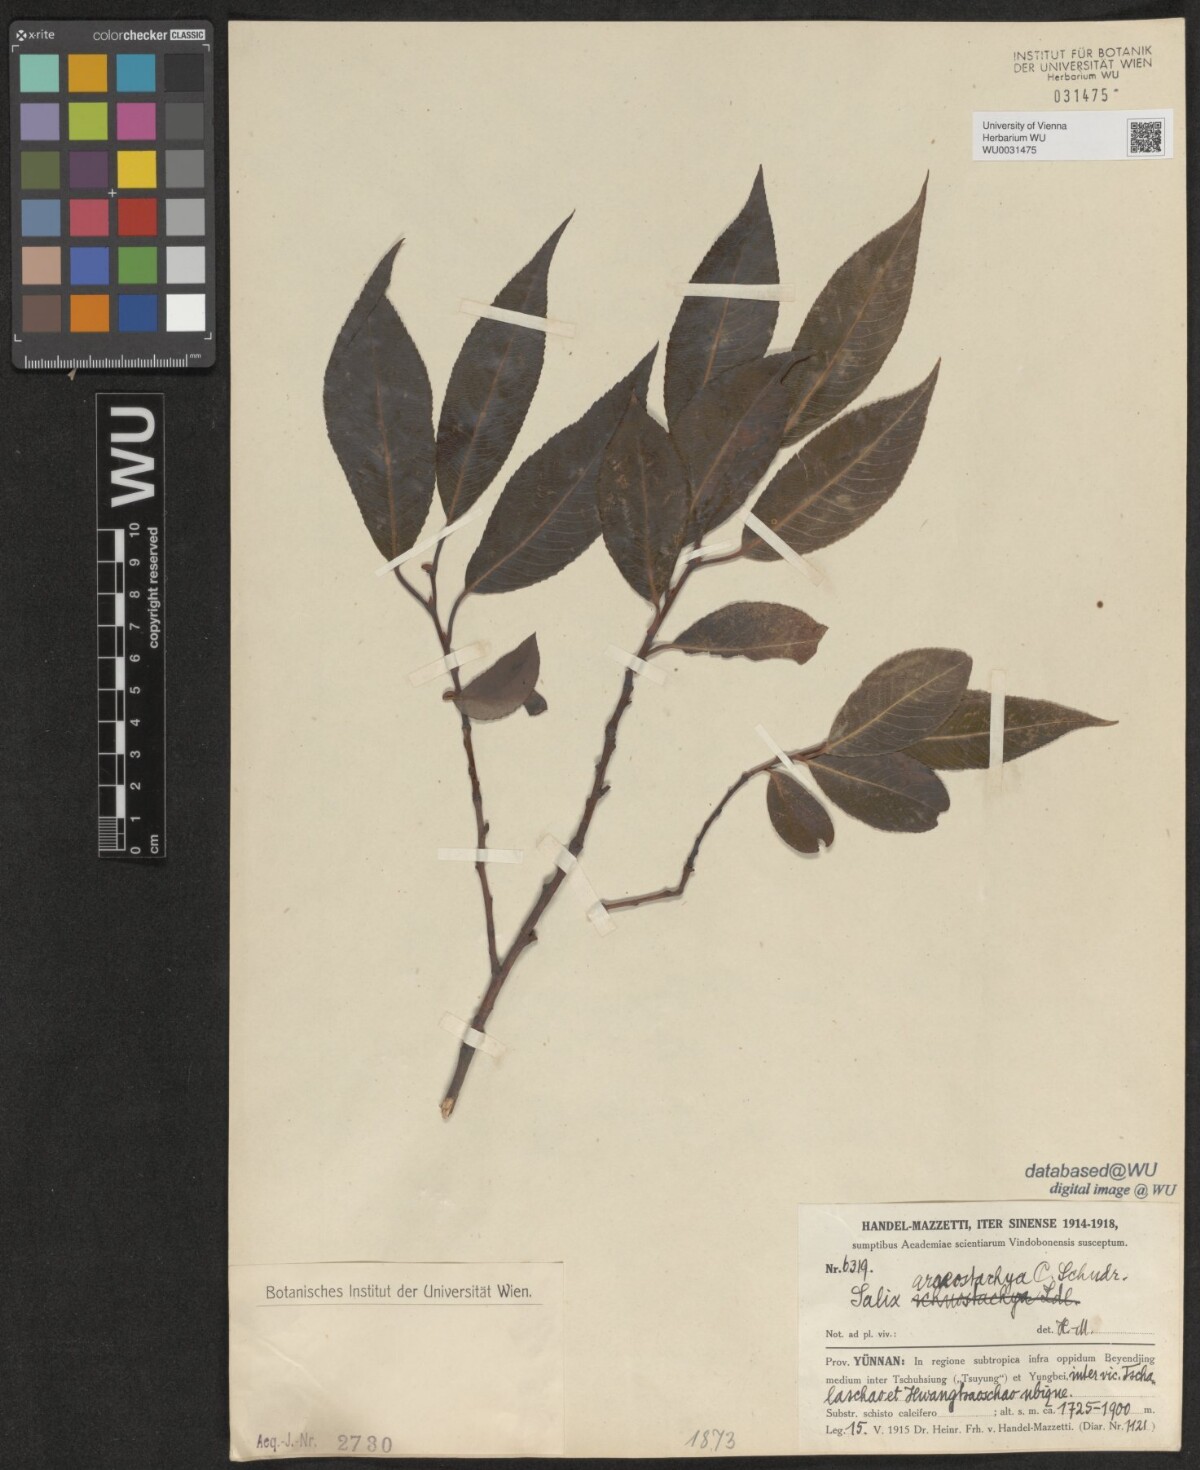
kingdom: Plantae
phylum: Tracheophyta
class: Magnoliopsida
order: Malpighiales
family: Salicaceae
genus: Salix
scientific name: Salix tetrasperma
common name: Indian willow
